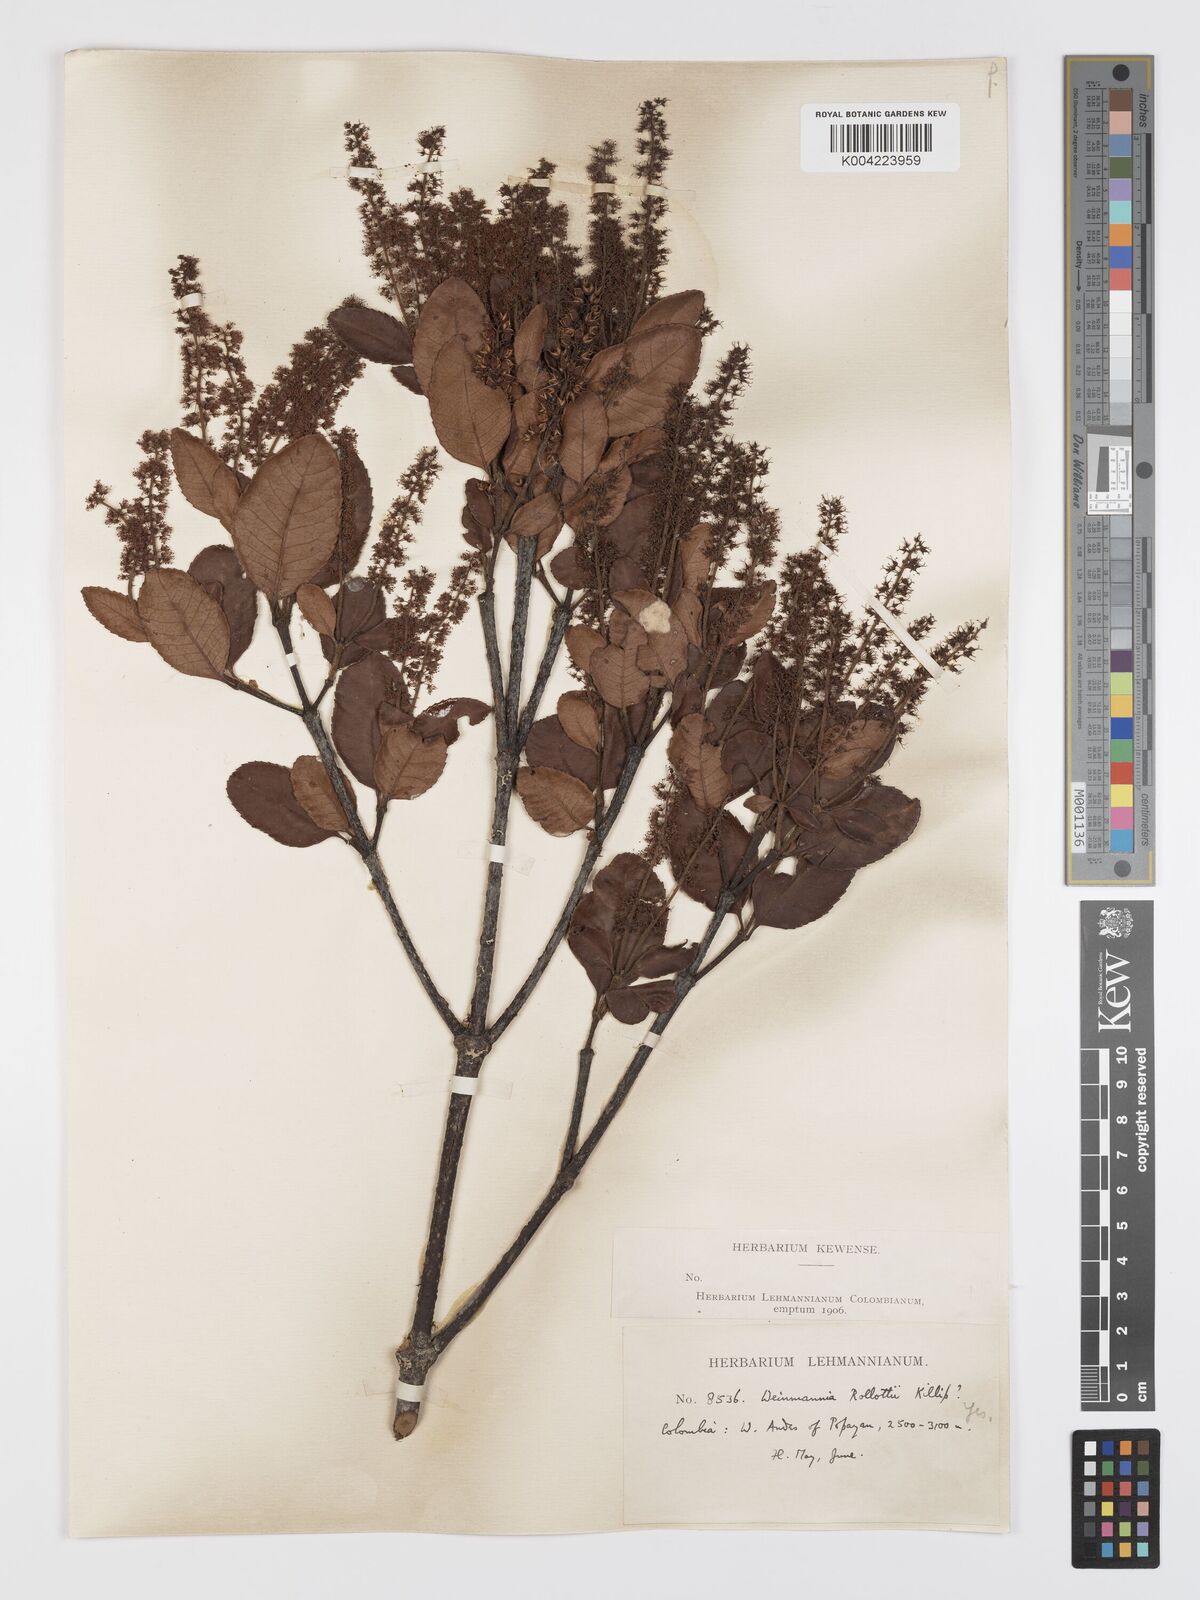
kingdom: Plantae
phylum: Tracheophyta
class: Magnoliopsida
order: Oxalidales
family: Cunoniaceae
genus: Weinmannia
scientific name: Weinmannia rollottii
